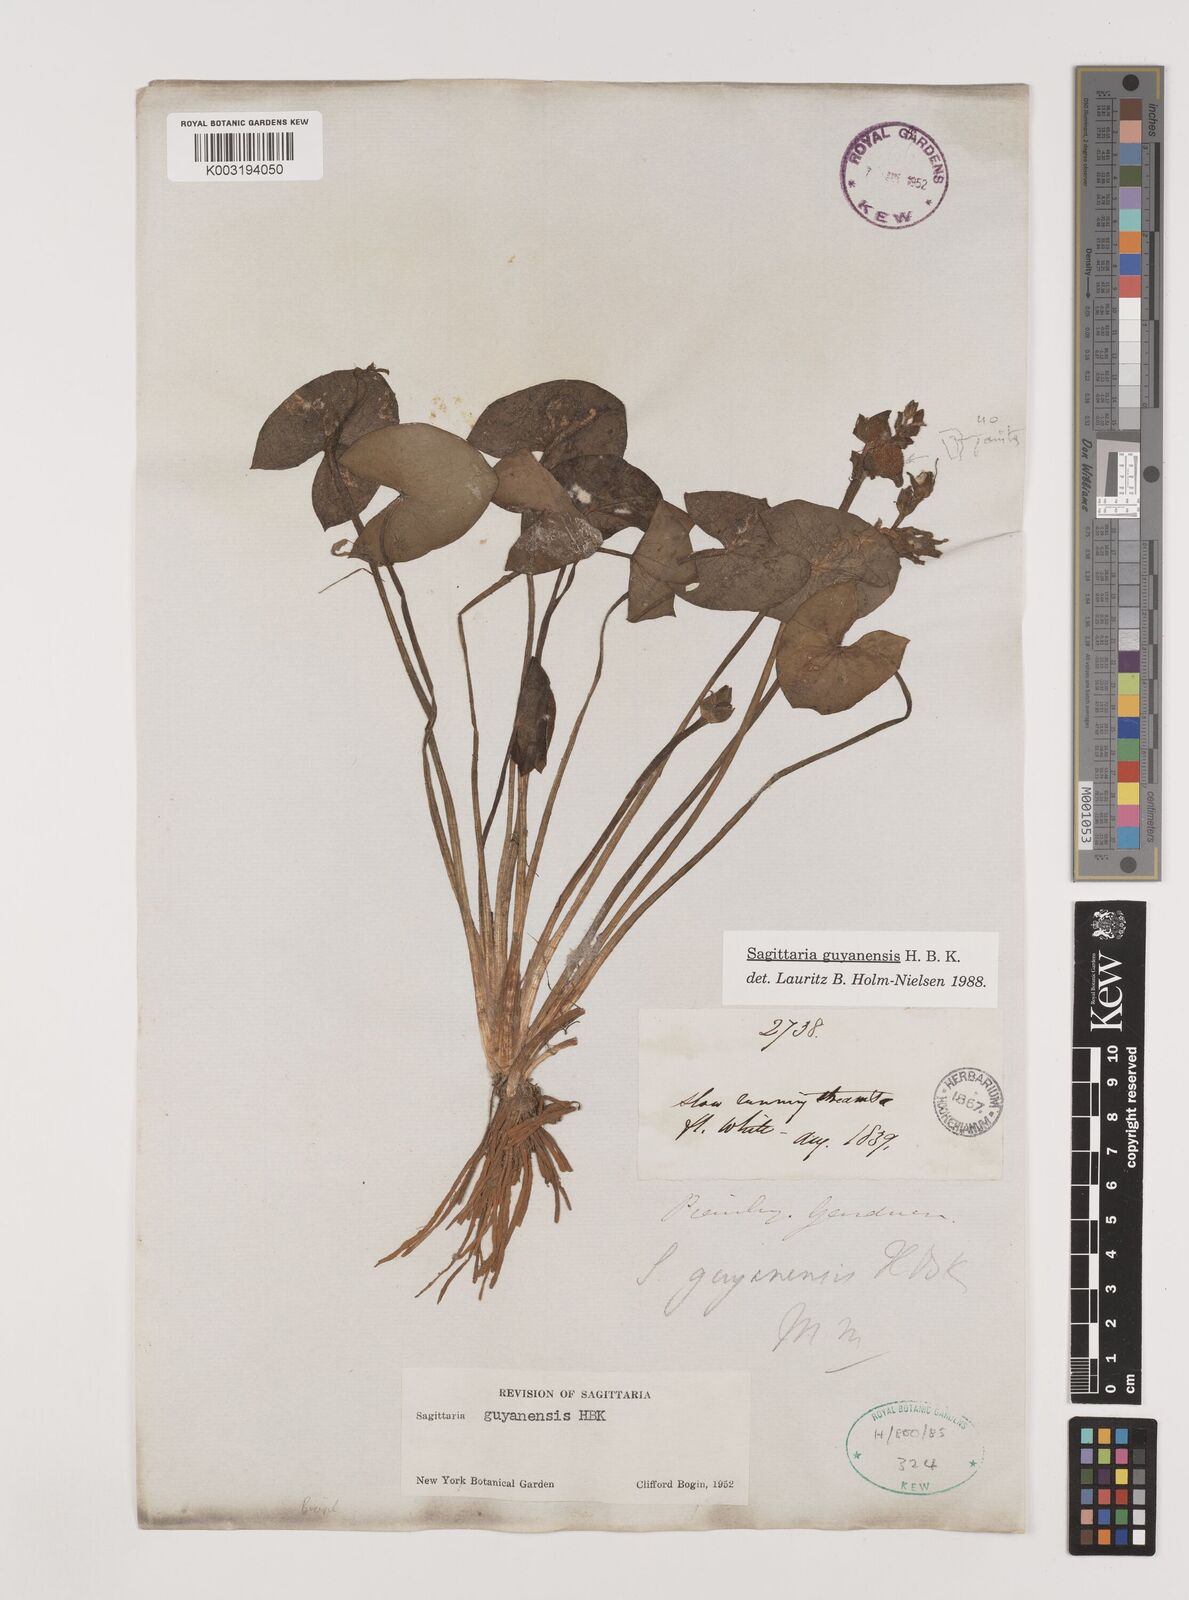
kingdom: Plantae
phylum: Tracheophyta
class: Liliopsida
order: Alismatales
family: Alismataceae
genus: Sagittaria
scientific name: Sagittaria guayanensis
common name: Guyanese arrowhead
